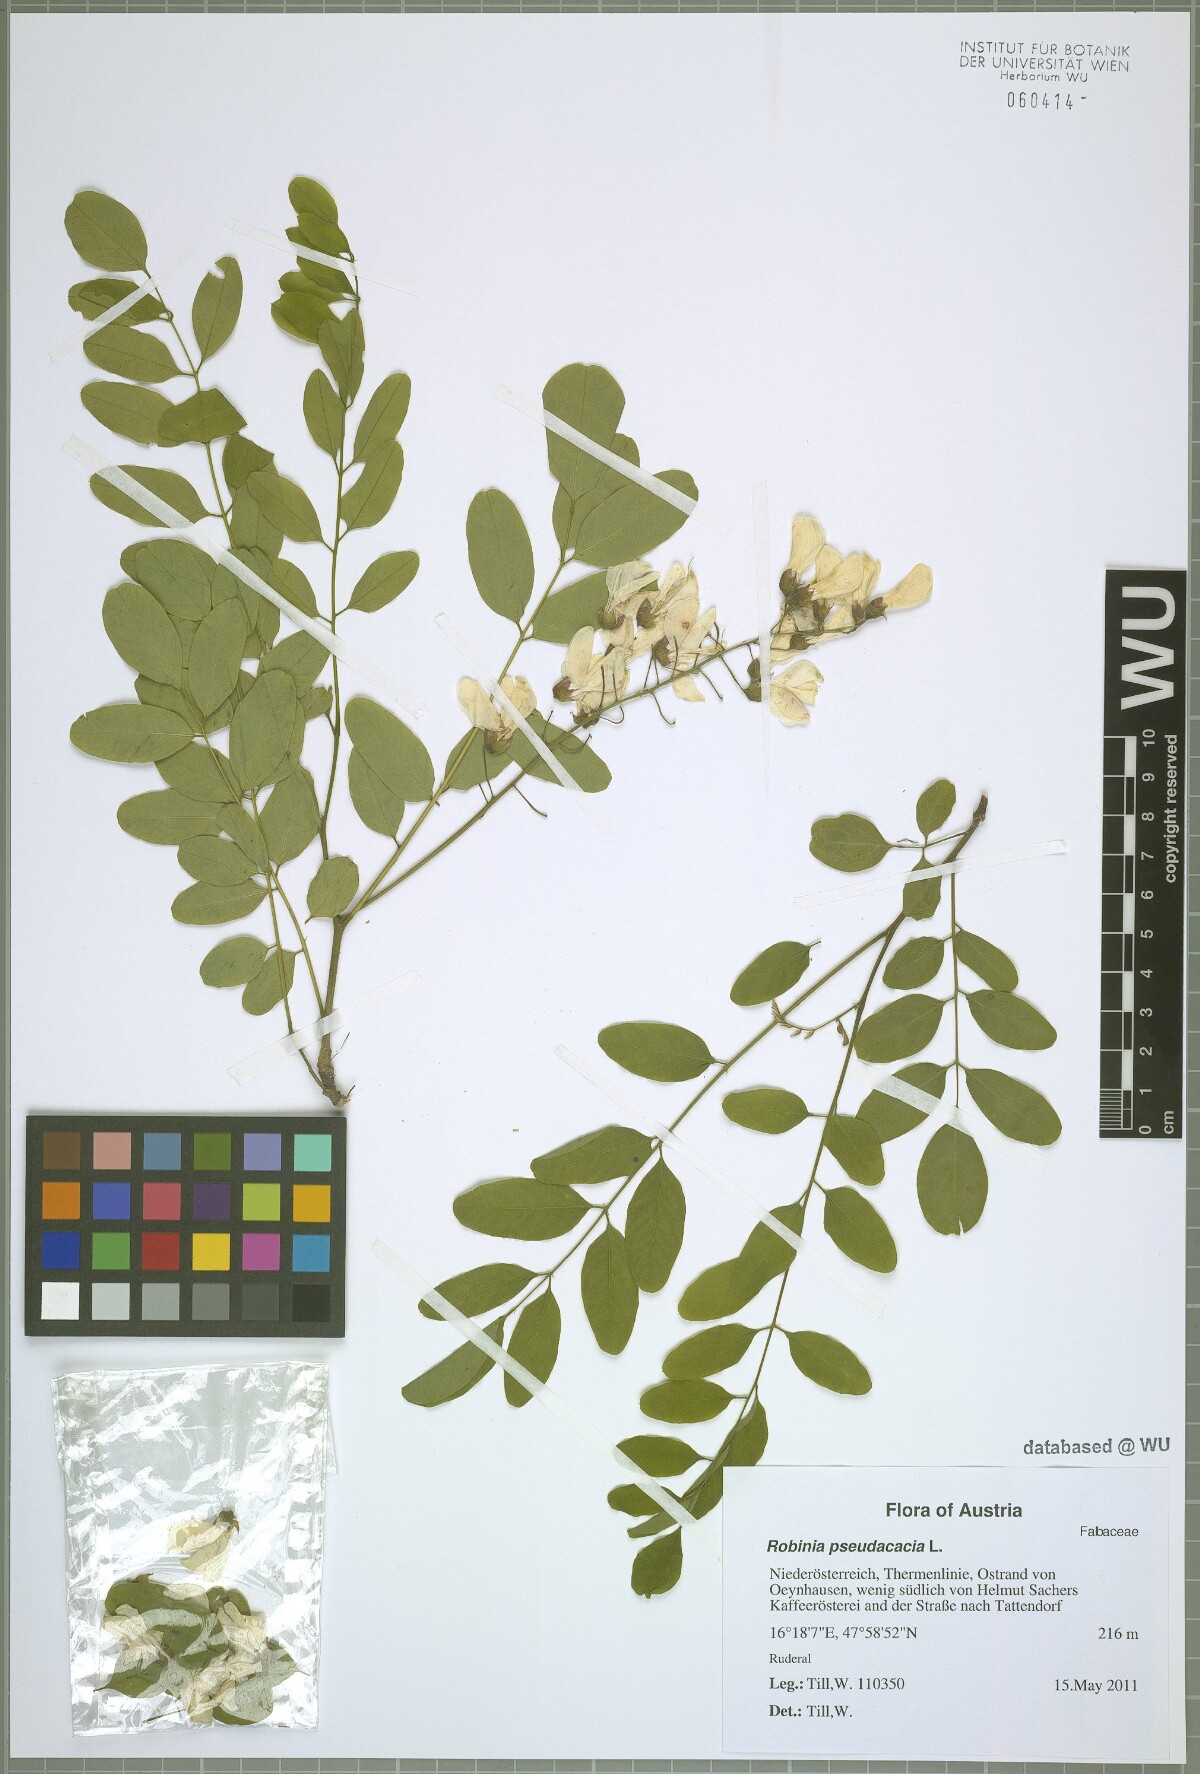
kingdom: Plantae
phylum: Tracheophyta
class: Magnoliopsida
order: Fabales
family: Fabaceae
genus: Robinia
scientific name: Robinia pseudoacacia
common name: Black locust
